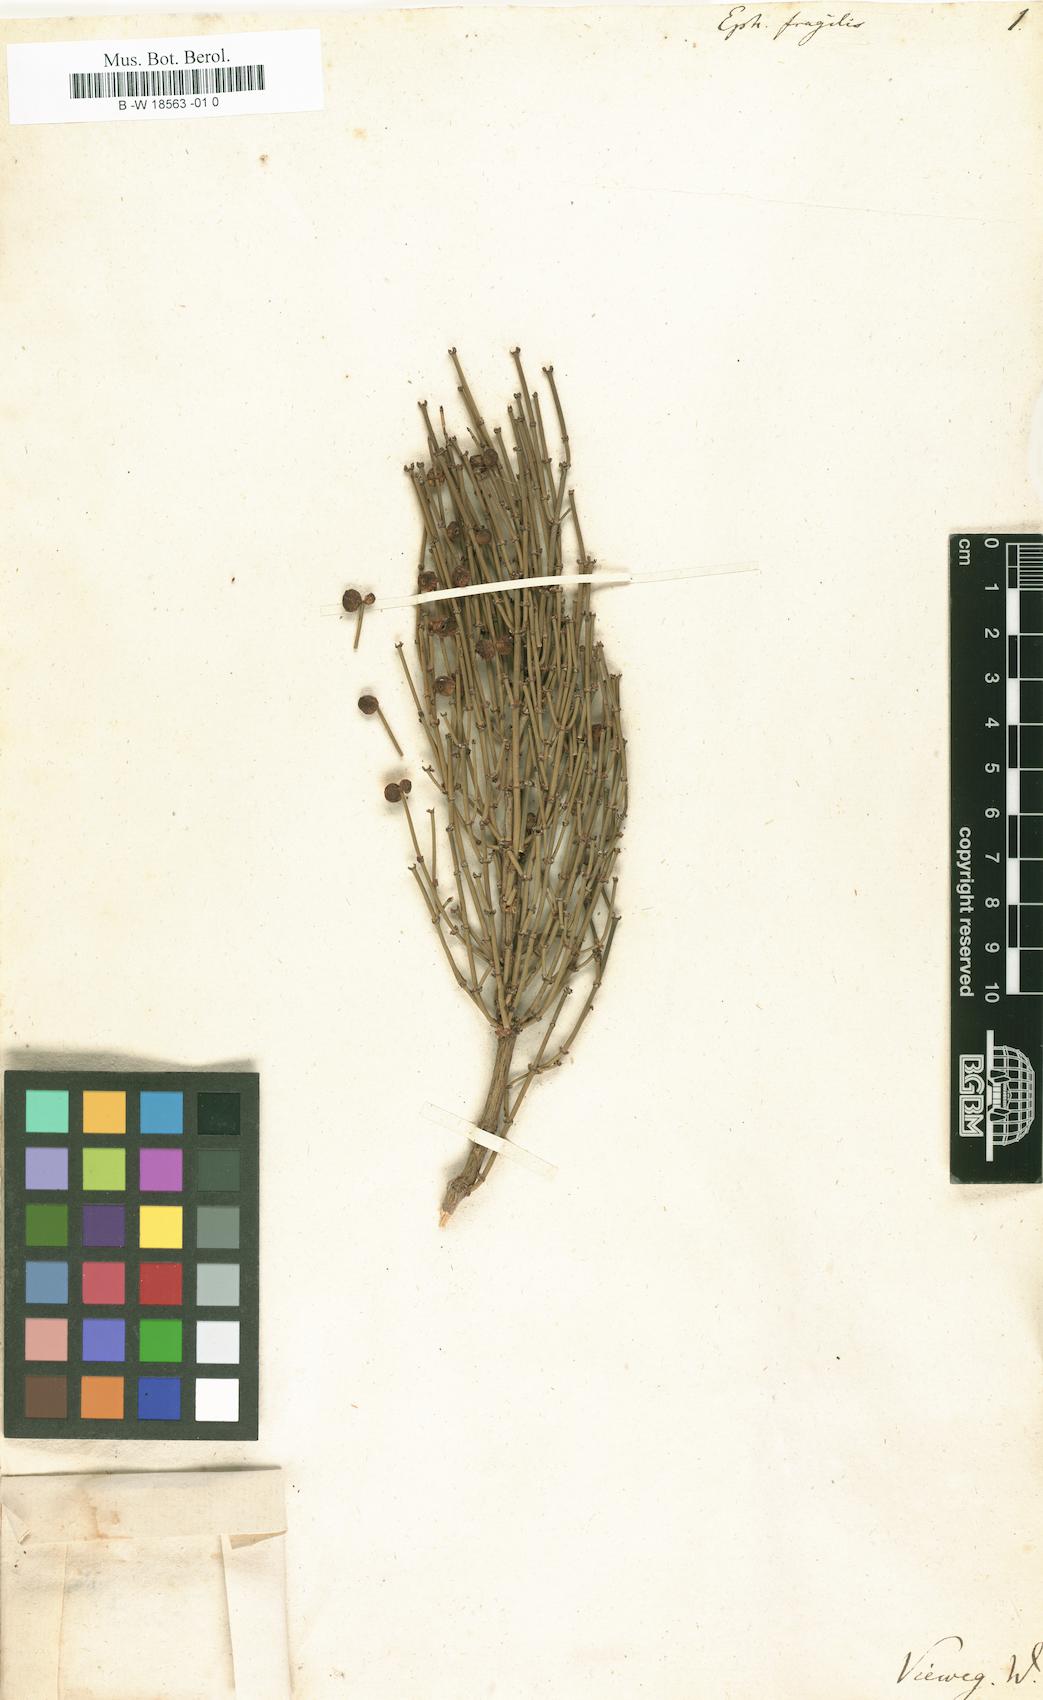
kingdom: Plantae
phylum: Tracheophyta
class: Gnetopsida
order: Ephedrales
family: Ephedraceae
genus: Ephedra
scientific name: Ephedra fragilis
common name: Joint pine
